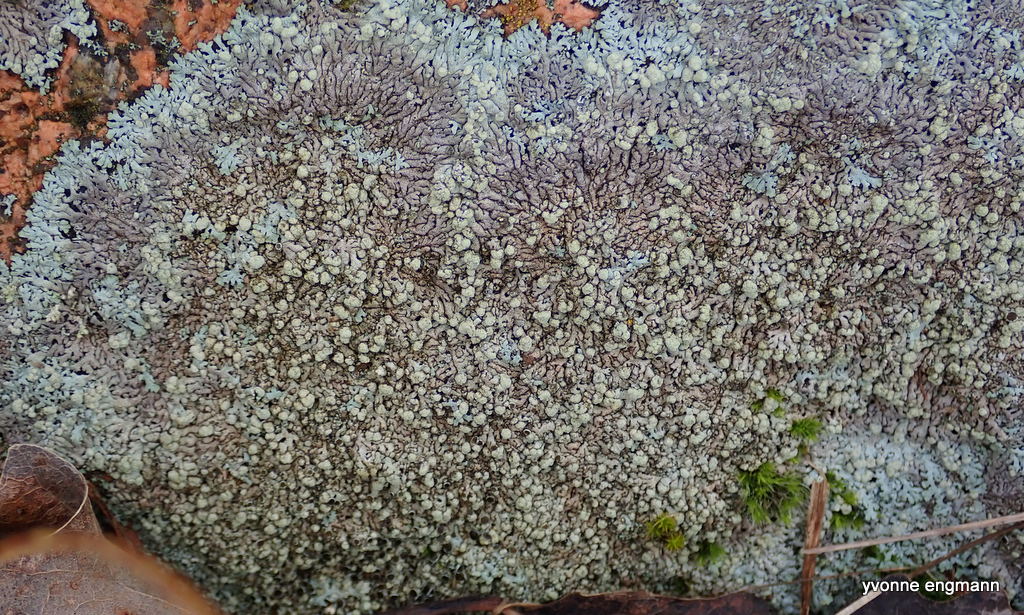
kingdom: Fungi
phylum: Ascomycota
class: Lecanoromycetes
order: Lecanorales
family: Parmeliaceae
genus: Xanthoparmelia
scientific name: Xanthoparmelia mougeotii
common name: liden skållav
